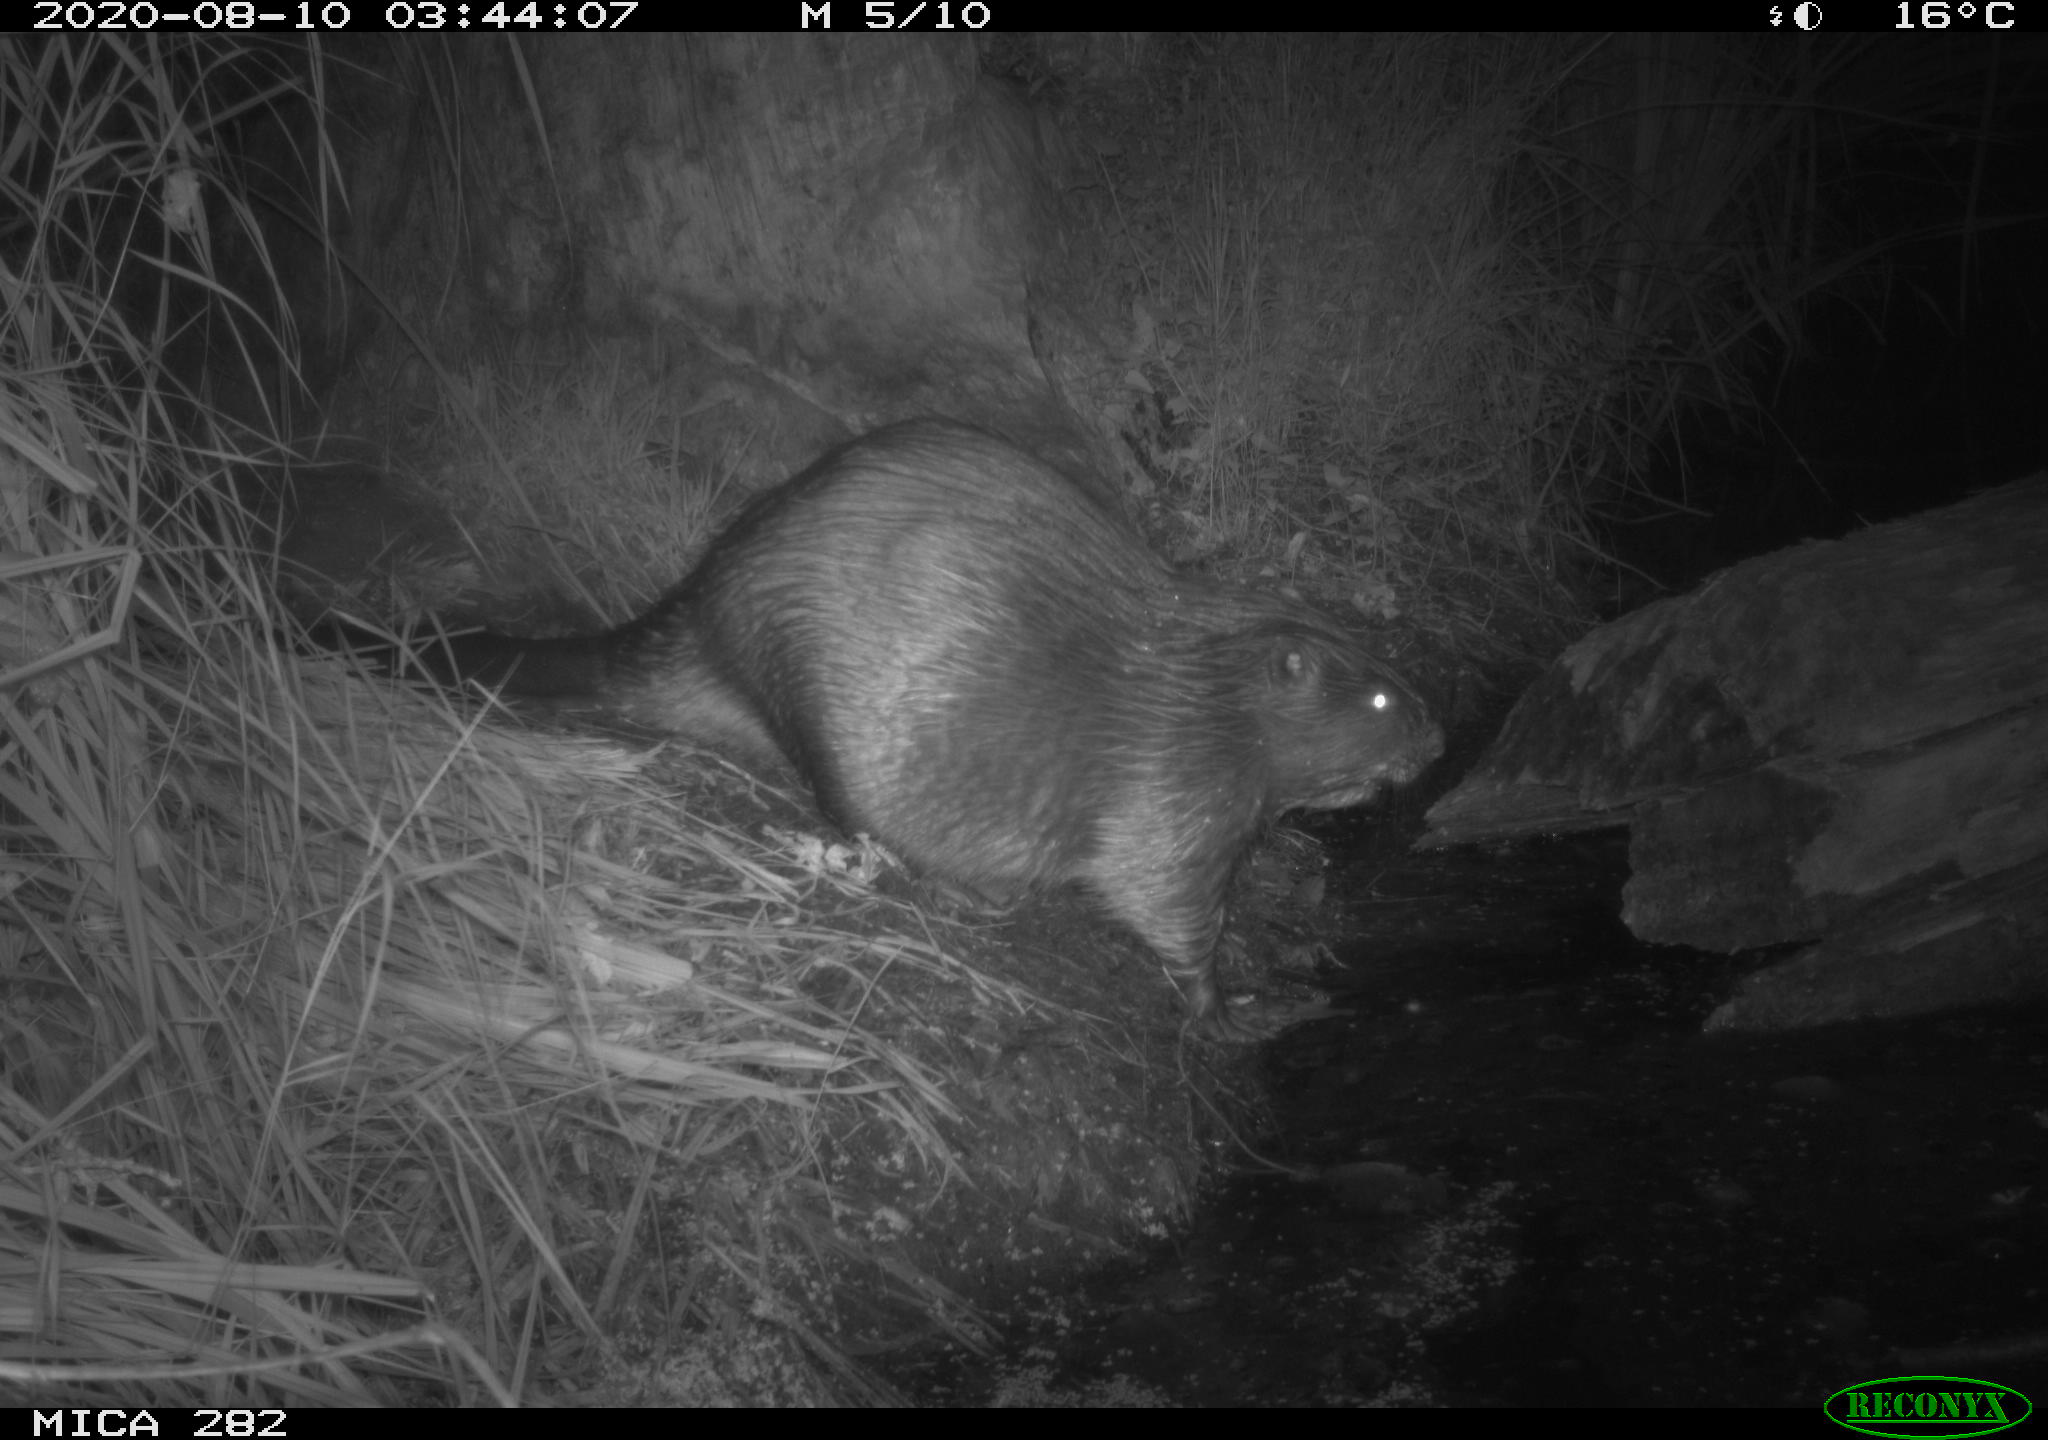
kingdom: Animalia
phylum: Chordata
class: Mammalia
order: Rodentia
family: Castoridae
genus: Castor
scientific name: Castor fiber
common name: Eurasian beaver
